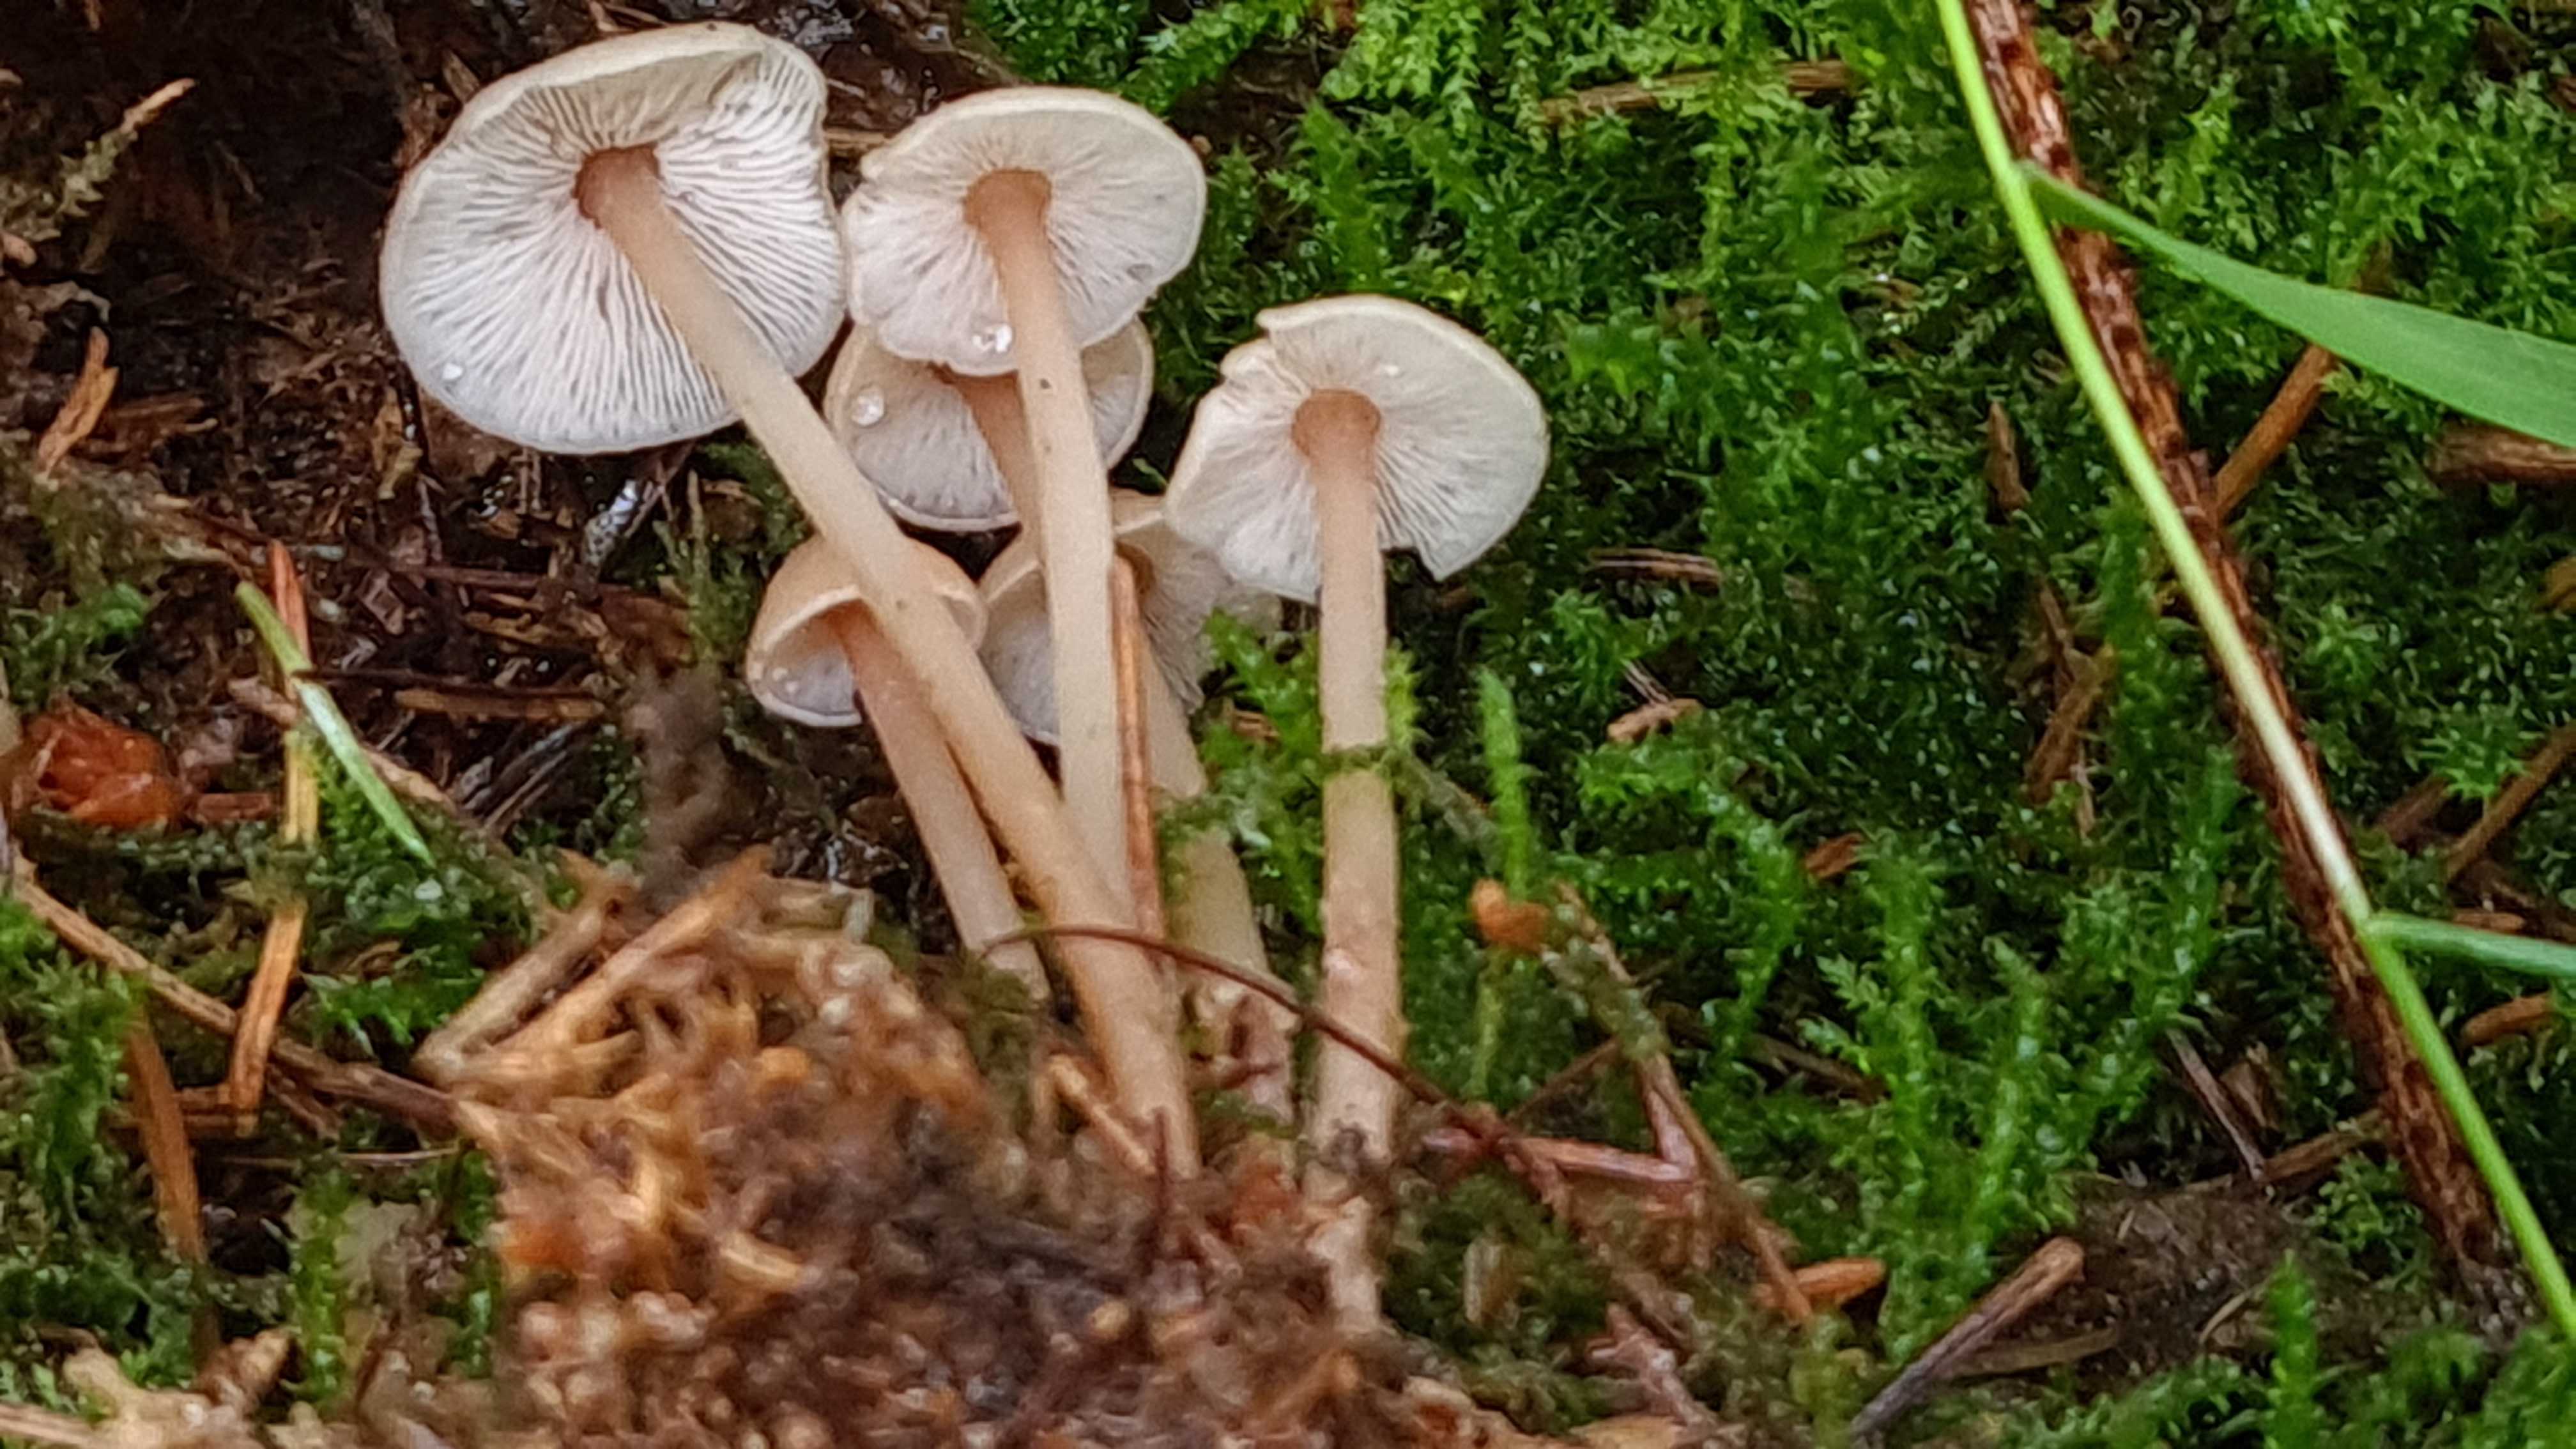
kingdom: Fungi
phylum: Basidiomycota
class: Agaricomycetes
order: Agaricales
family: Omphalotaceae
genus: Collybiopsis
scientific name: Collybiopsis confluens
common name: knippe-fladhat
